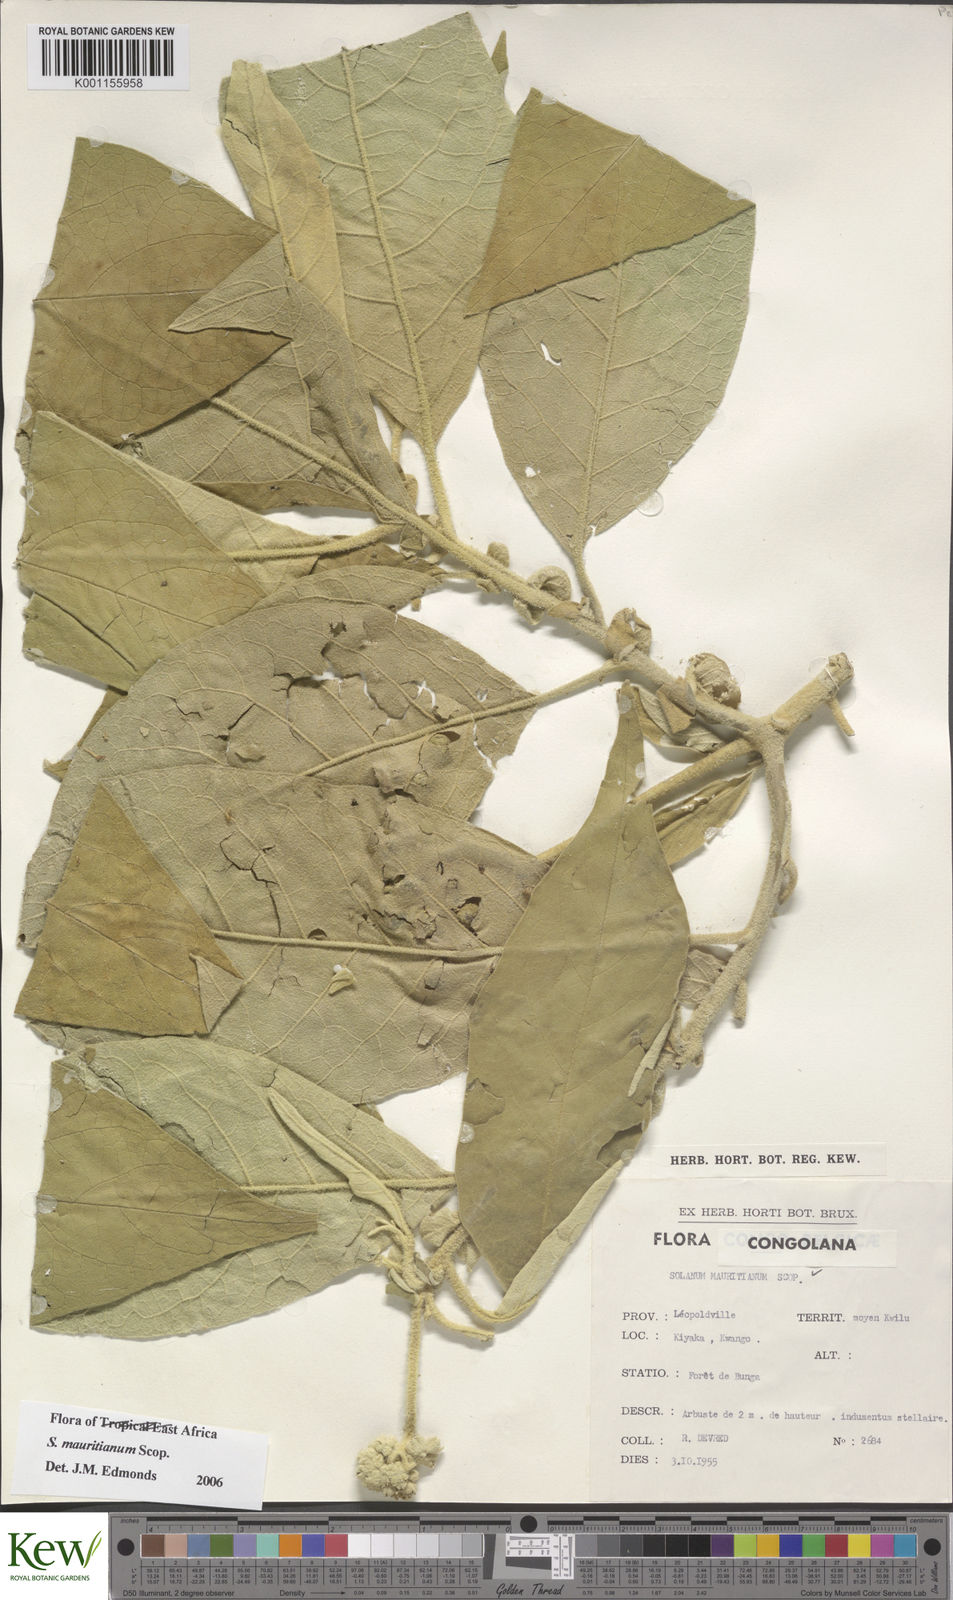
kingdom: Plantae
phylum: Tracheophyta
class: Magnoliopsida
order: Solanales
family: Solanaceae
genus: Solanum
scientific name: Solanum mauritianum
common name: Earleaf nightshade
